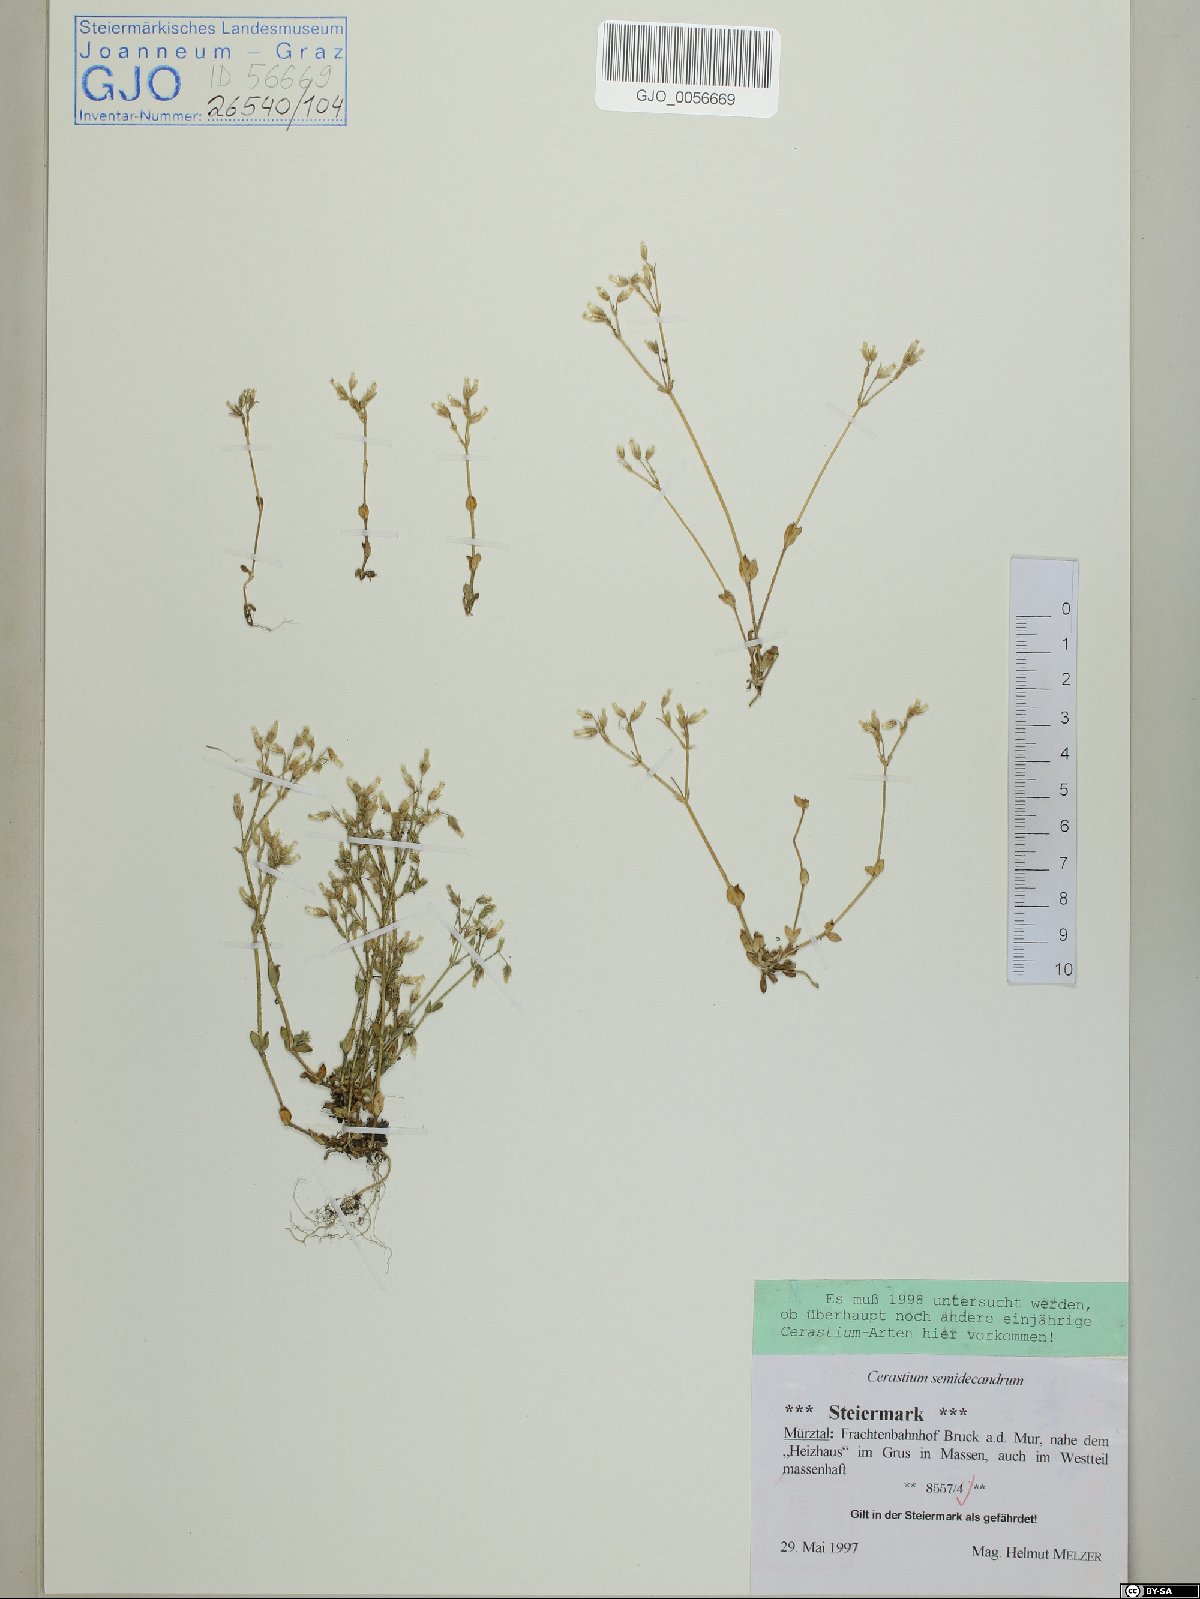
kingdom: Plantae
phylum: Tracheophyta
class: Magnoliopsida
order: Caryophyllales
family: Caryophyllaceae
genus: Cerastium
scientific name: Cerastium semidecandrum
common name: Little mouse-ear
